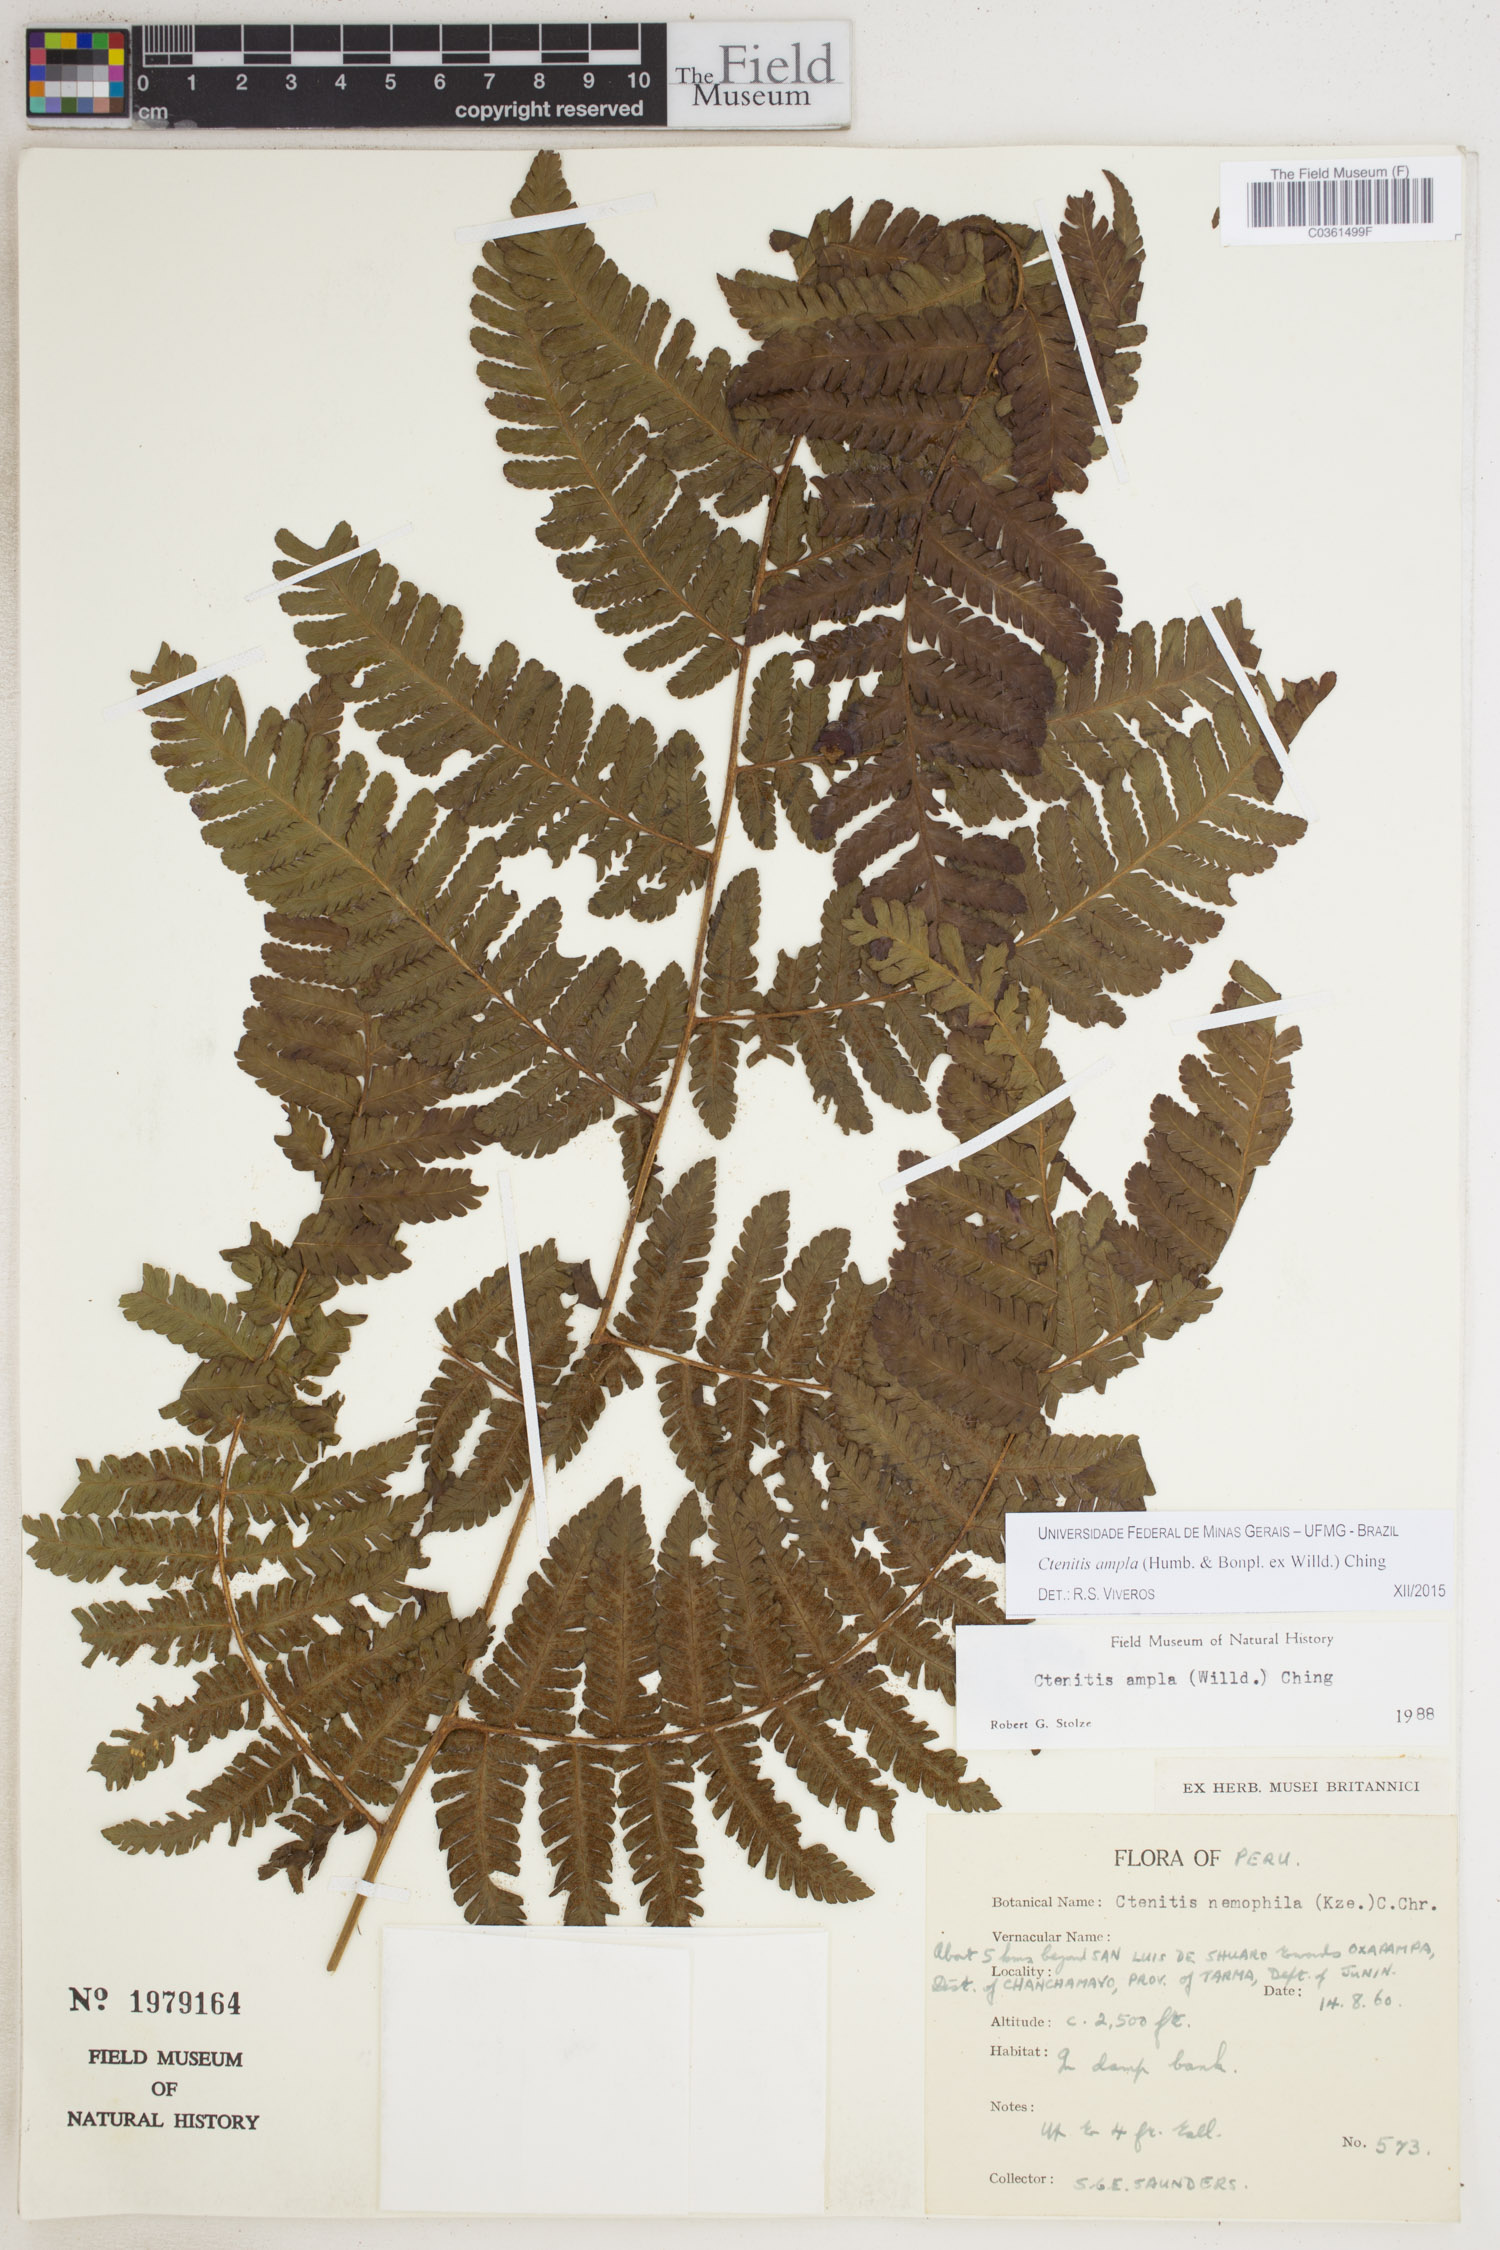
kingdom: Plantae
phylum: Tracheophyta
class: Polypodiopsida
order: Polypodiales
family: Dryopteridaceae
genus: Ctenitis
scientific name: Ctenitis sloanei
